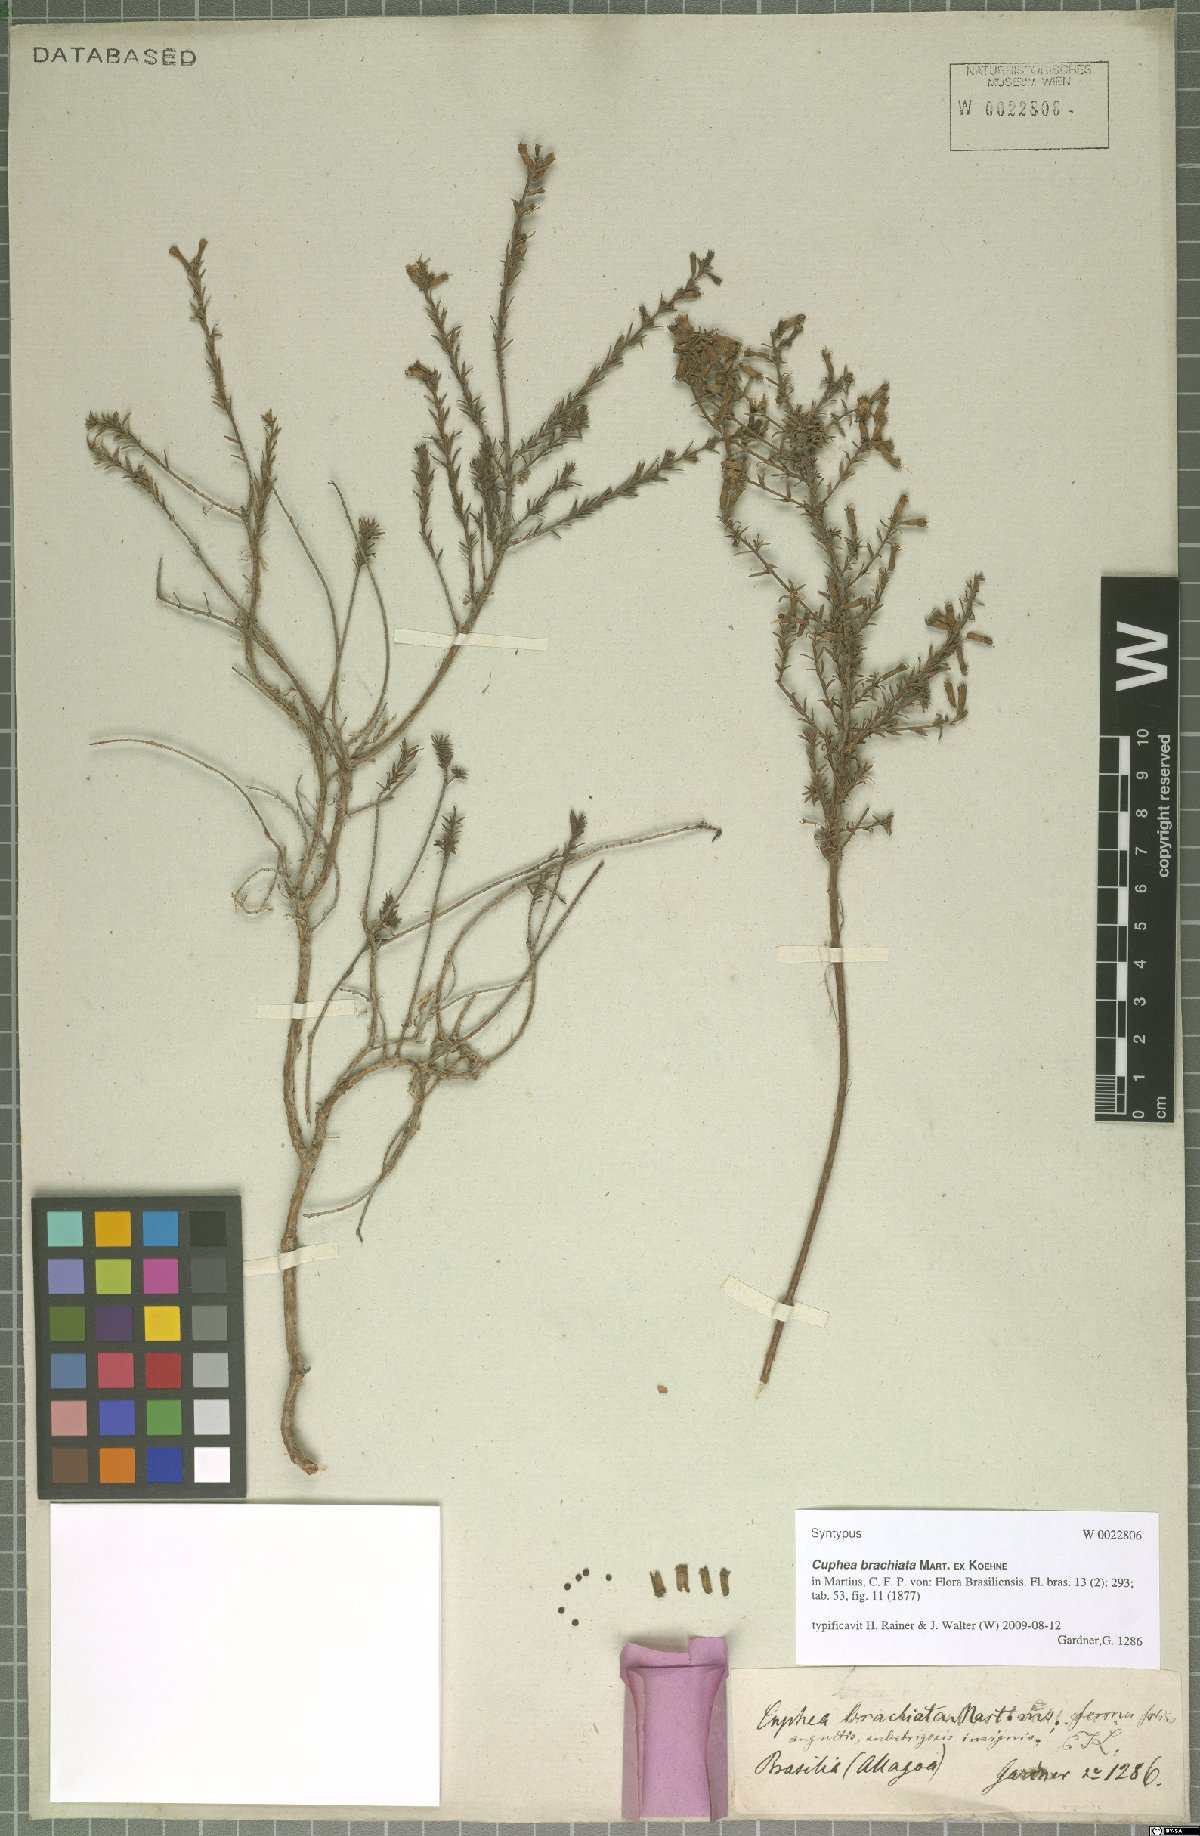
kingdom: Plantae
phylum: Tracheophyta
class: Magnoliopsida
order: Myrtales
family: Lythraceae
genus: Cuphea
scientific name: Cuphea brachiata
